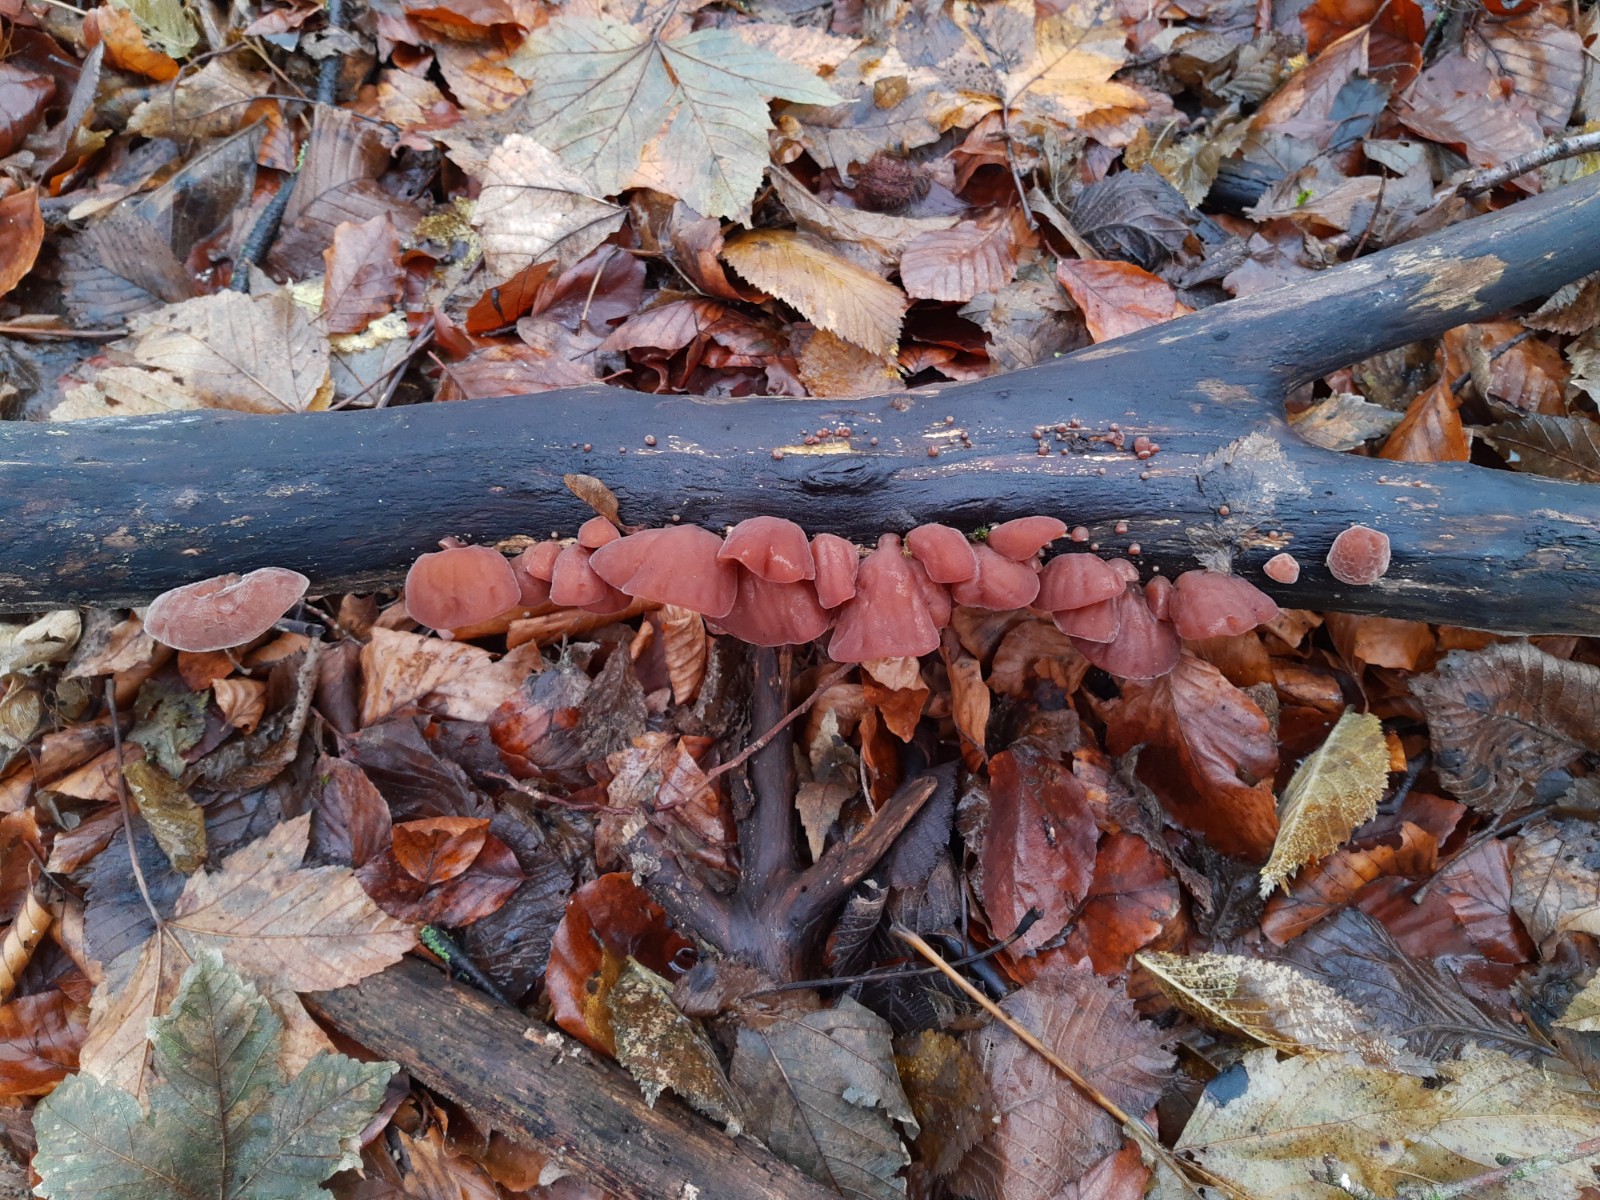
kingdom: Fungi
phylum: Basidiomycota
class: Agaricomycetes
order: Auriculariales
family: Auriculariaceae
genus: Auricularia
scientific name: Auricularia auricula-judae
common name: almindelig judasøre
